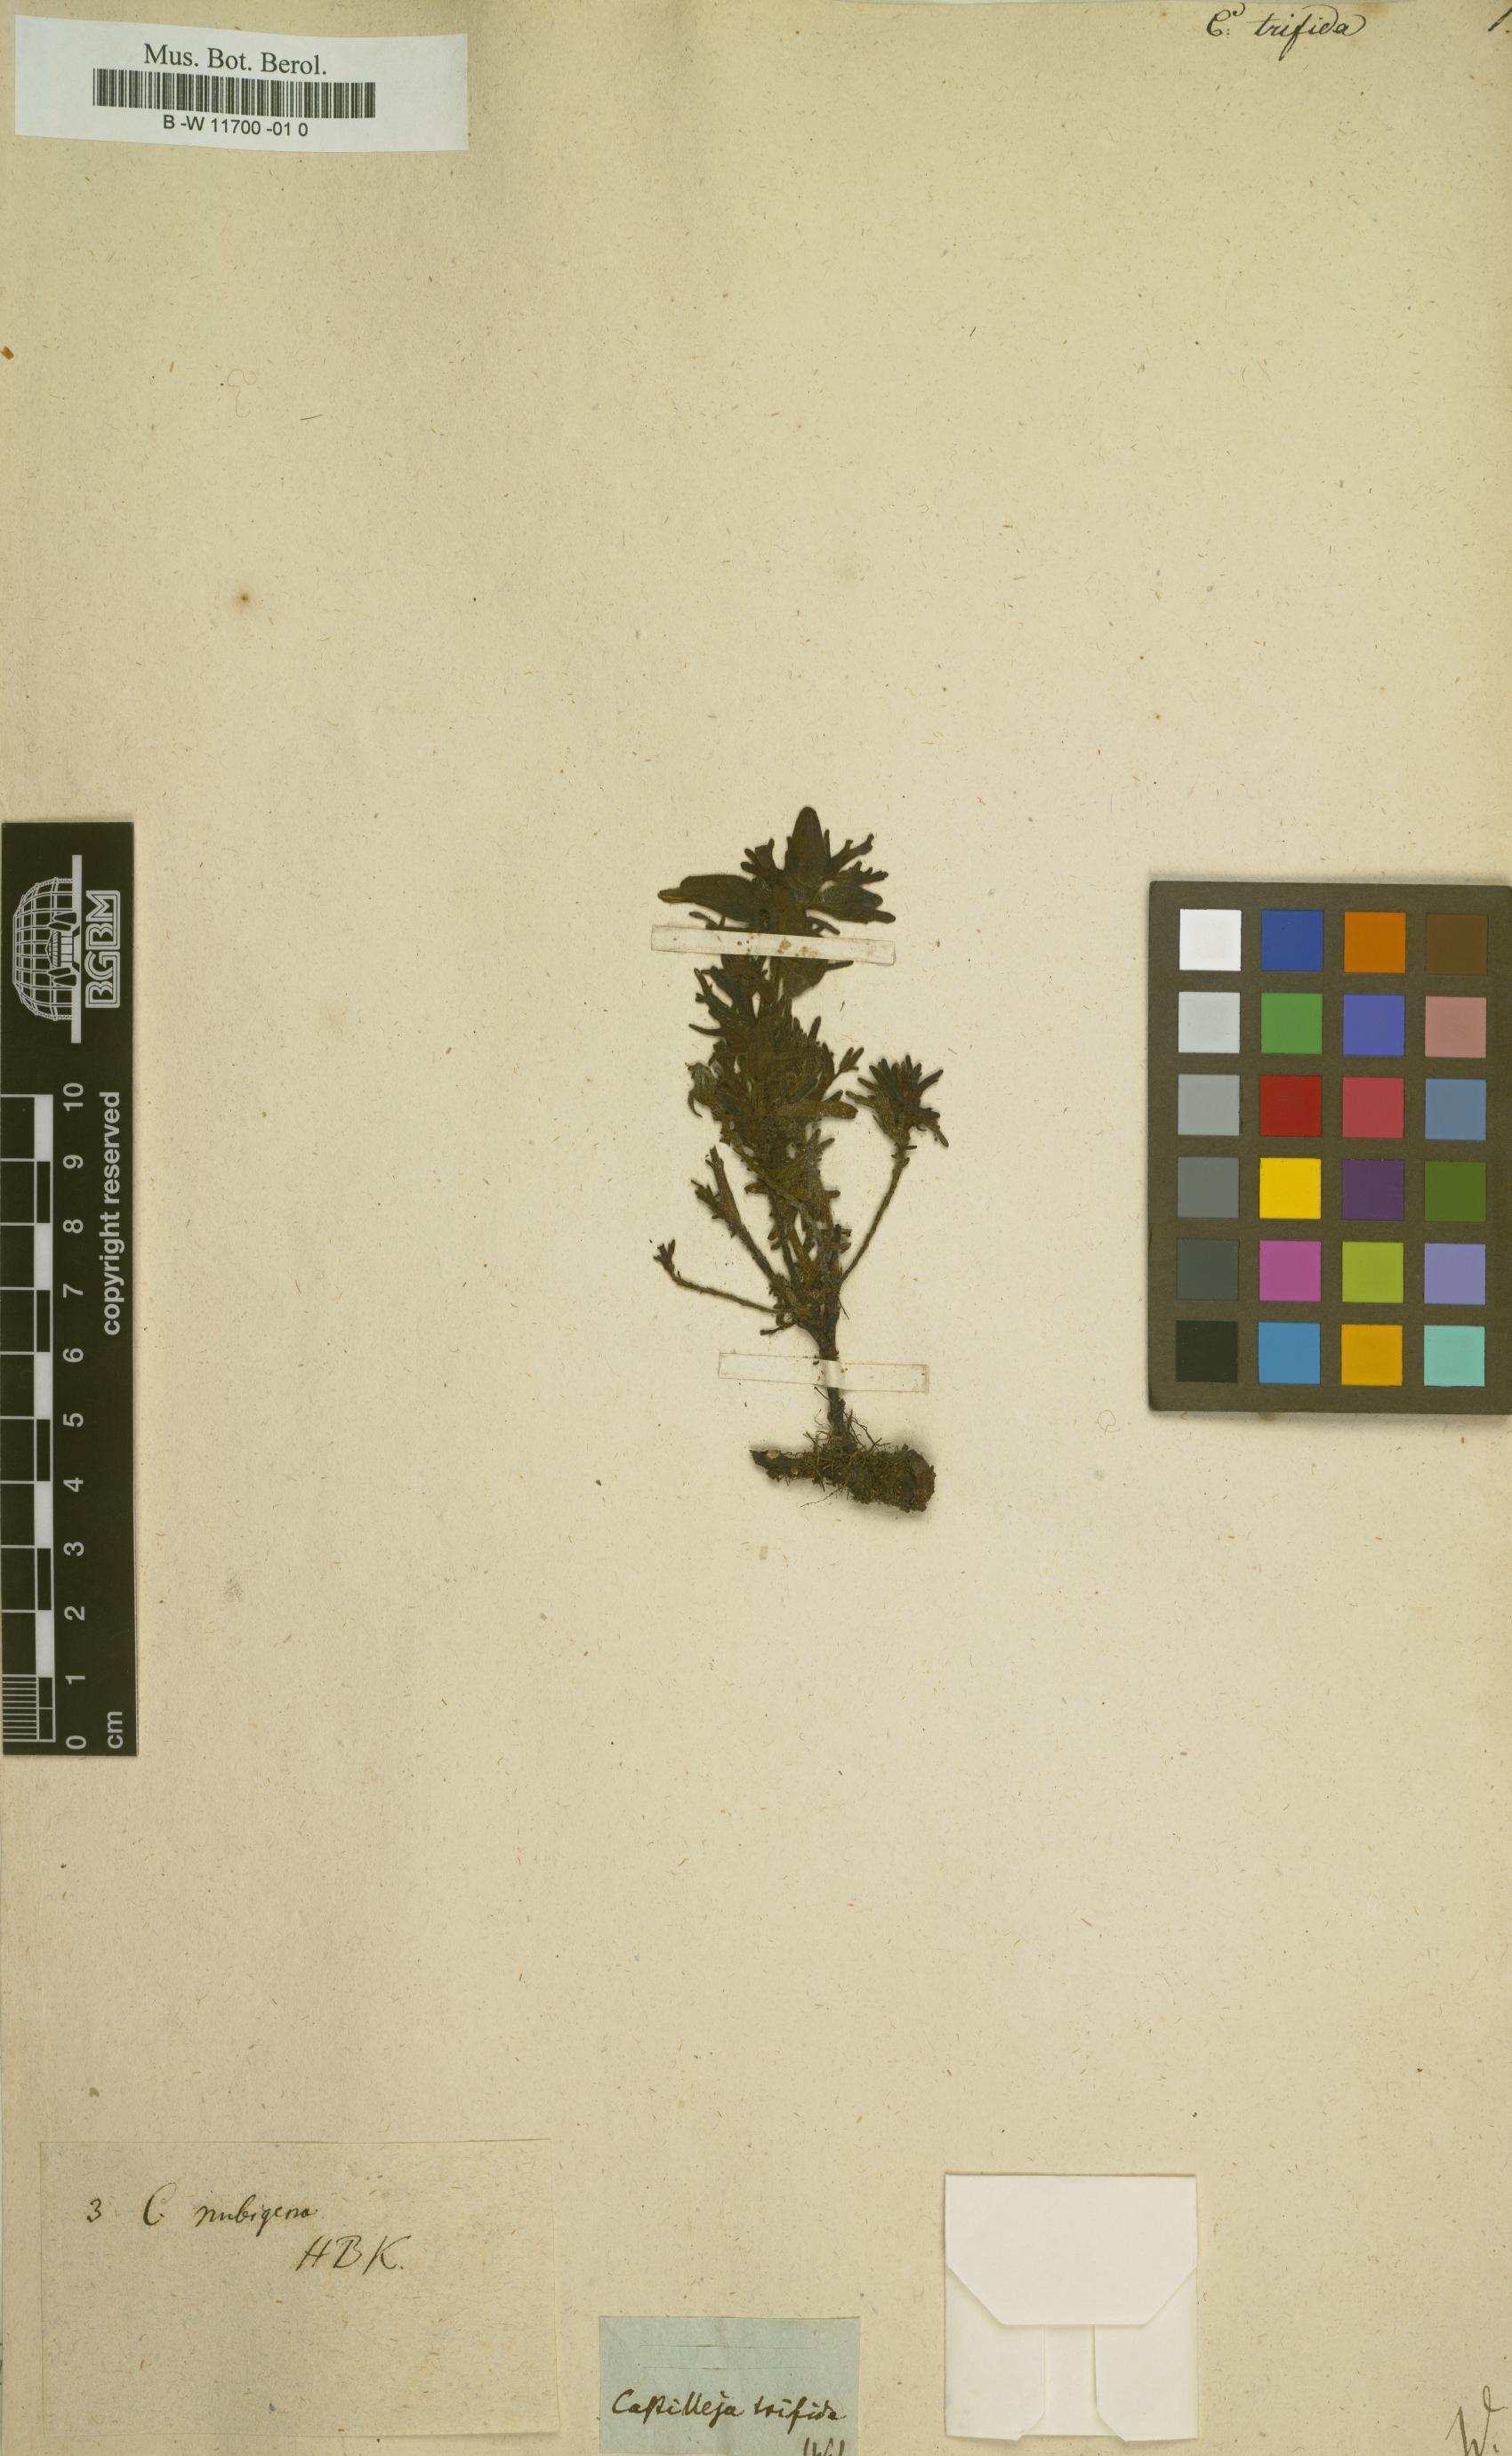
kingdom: Plantae
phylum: Tracheophyta
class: Magnoliopsida
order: Lamiales
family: Orobanchaceae
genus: Castilleja
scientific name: Castilleja
